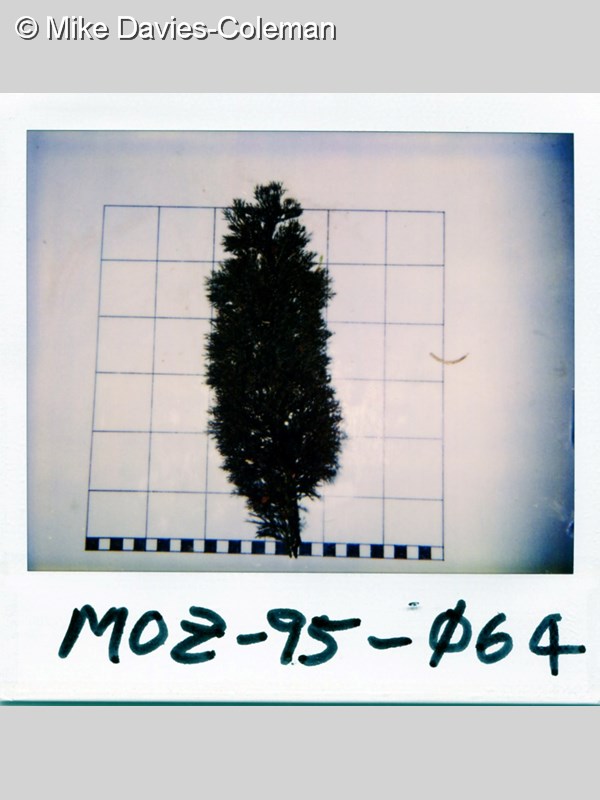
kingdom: Animalia
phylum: Cnidaria
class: Anthozoa
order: Antipatharia
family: Antipathidae
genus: Antipathes
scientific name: Antipathes
